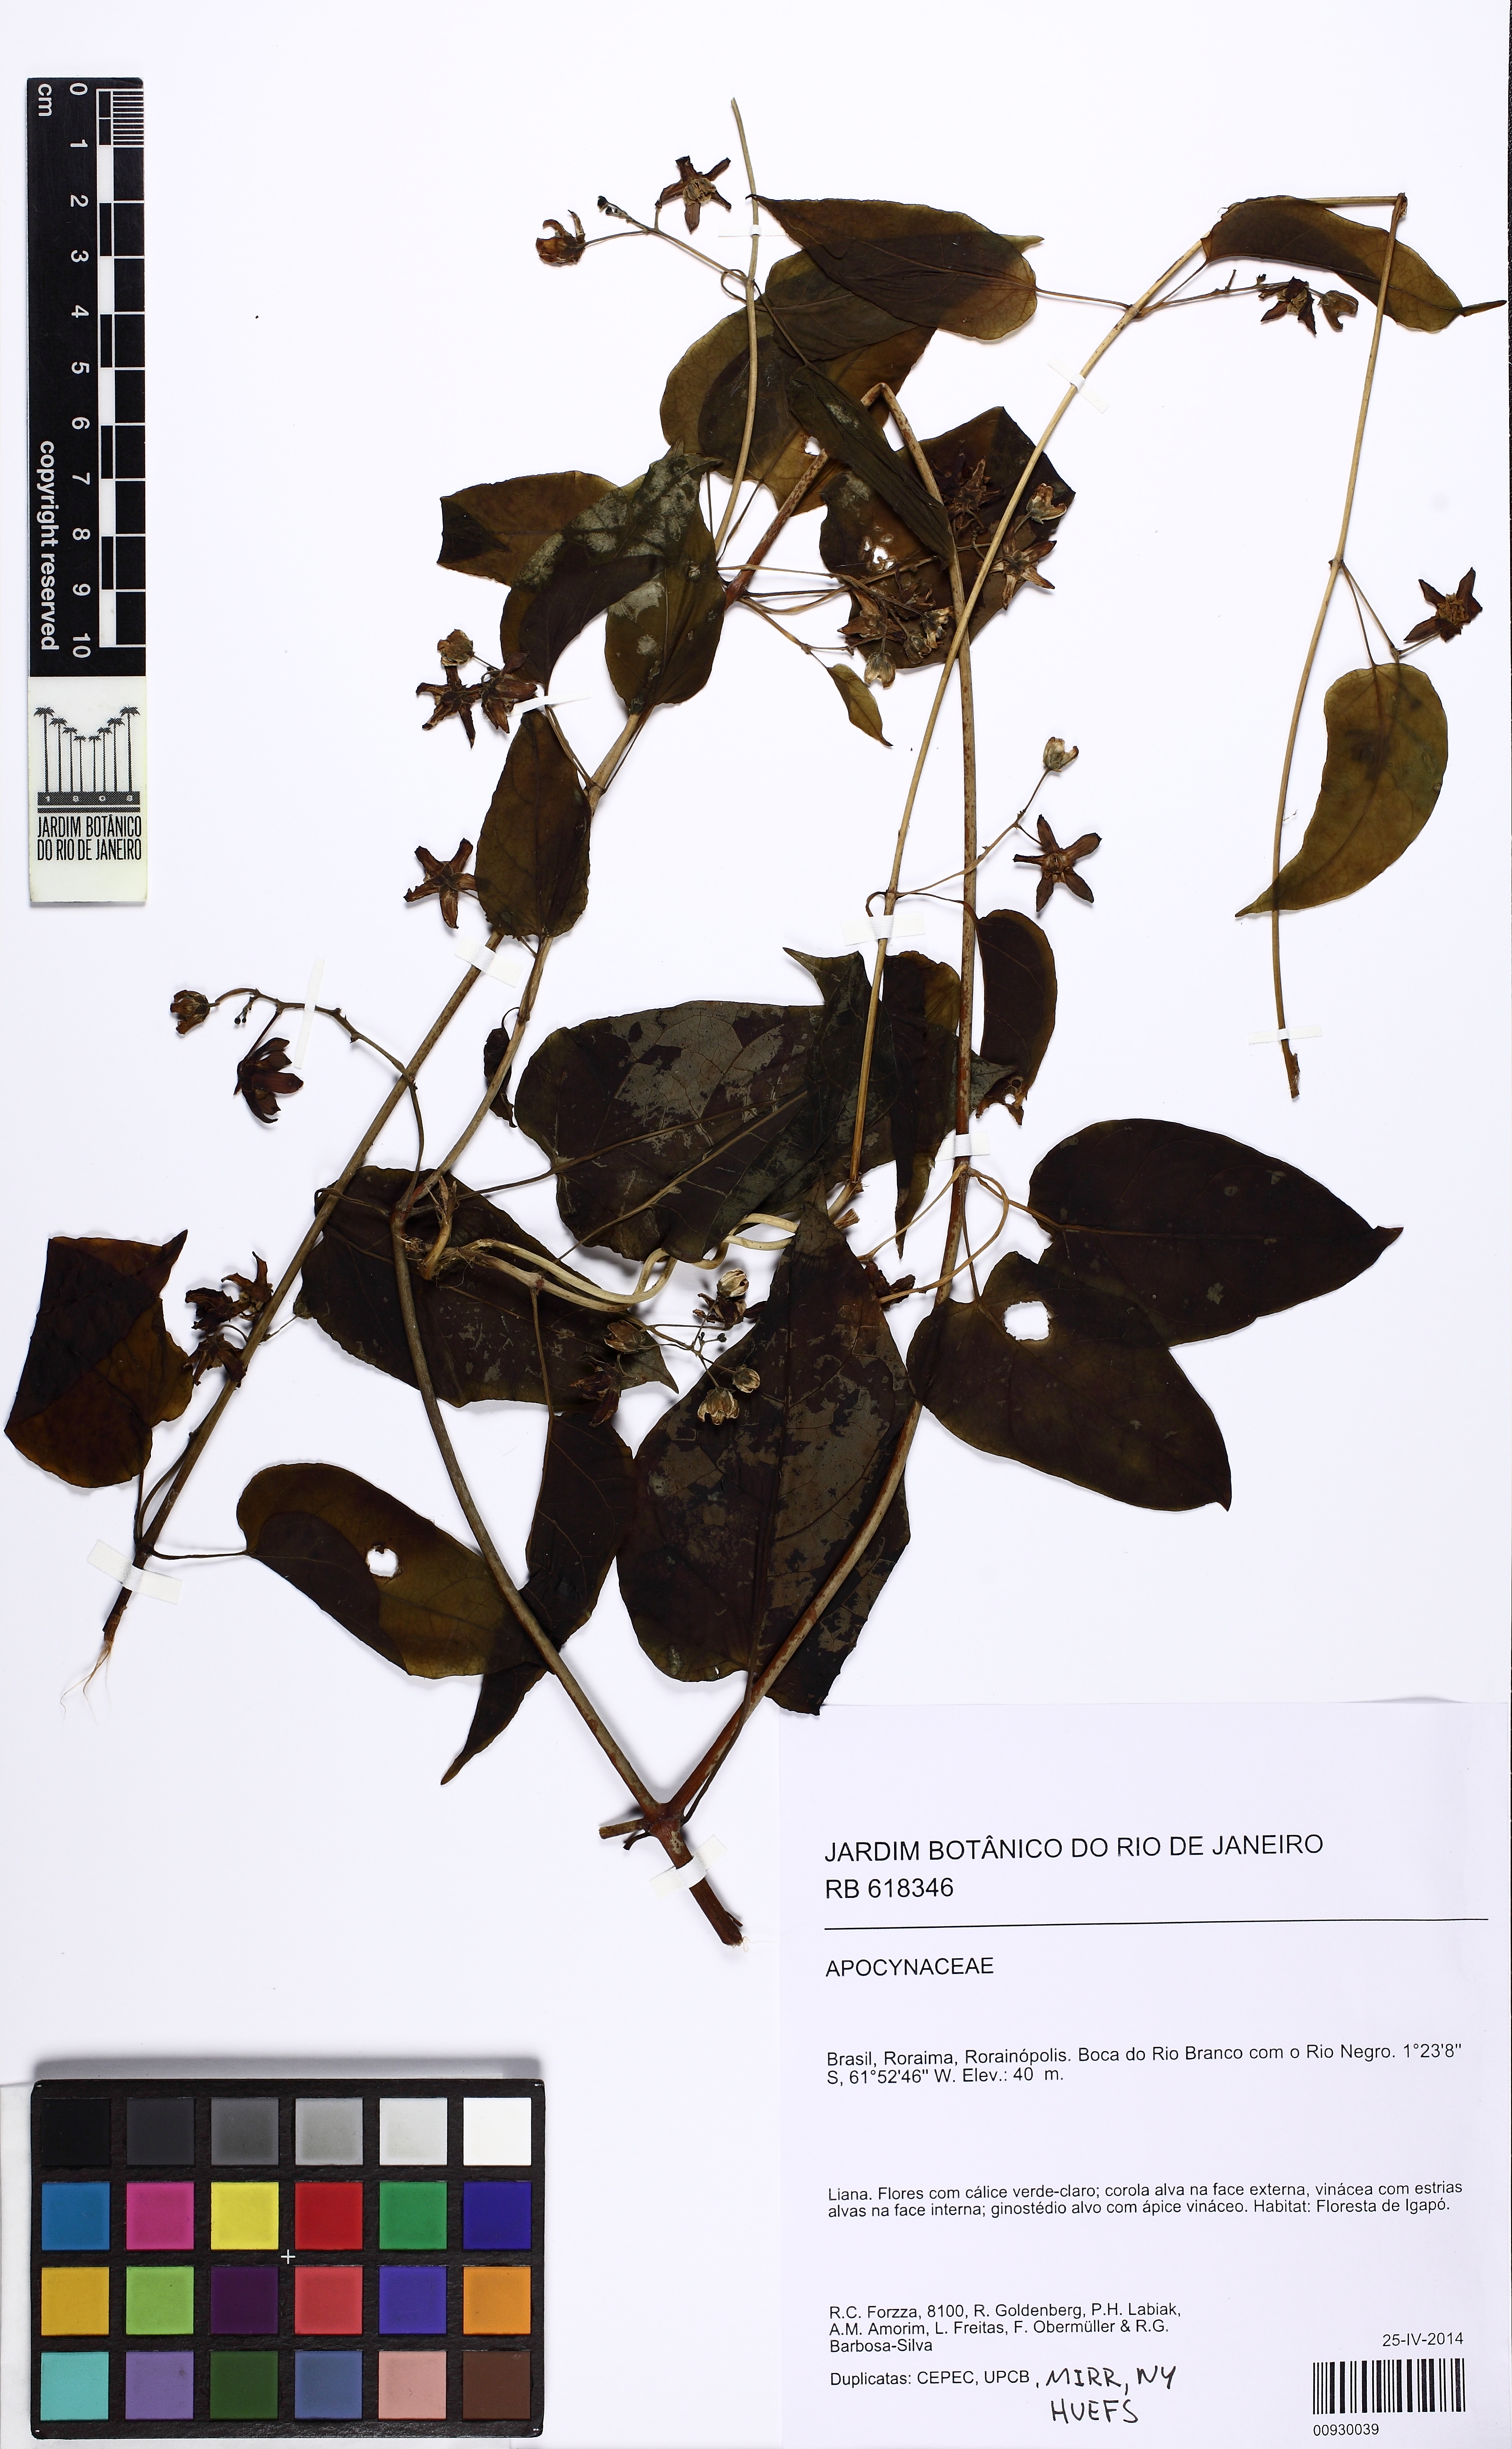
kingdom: Plantae
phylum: Tracheophyta
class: Magnoliopsida
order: Gentianales
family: Apocynaceae
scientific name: Apocynaceae
